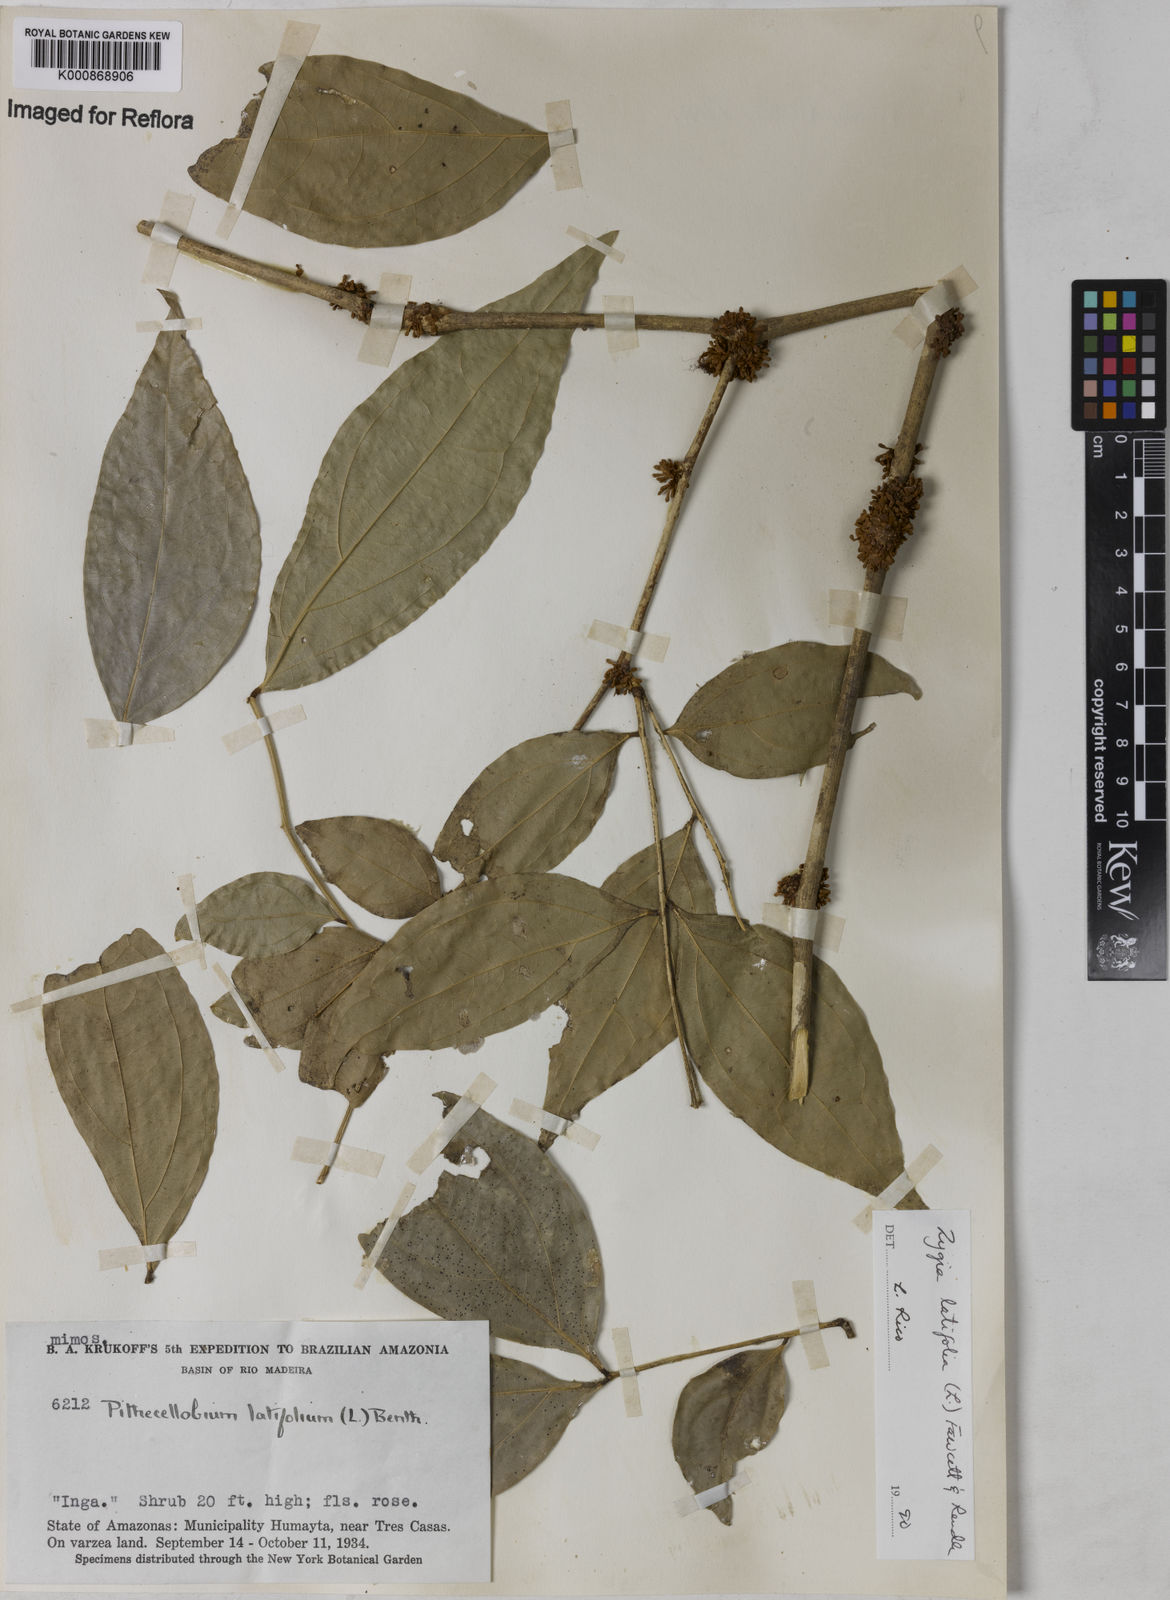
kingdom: Plantae
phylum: Tracheophyta
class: Magnoliopsida
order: Fabales
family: Fabaceae
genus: Zygia
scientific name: Zygia latifolia
